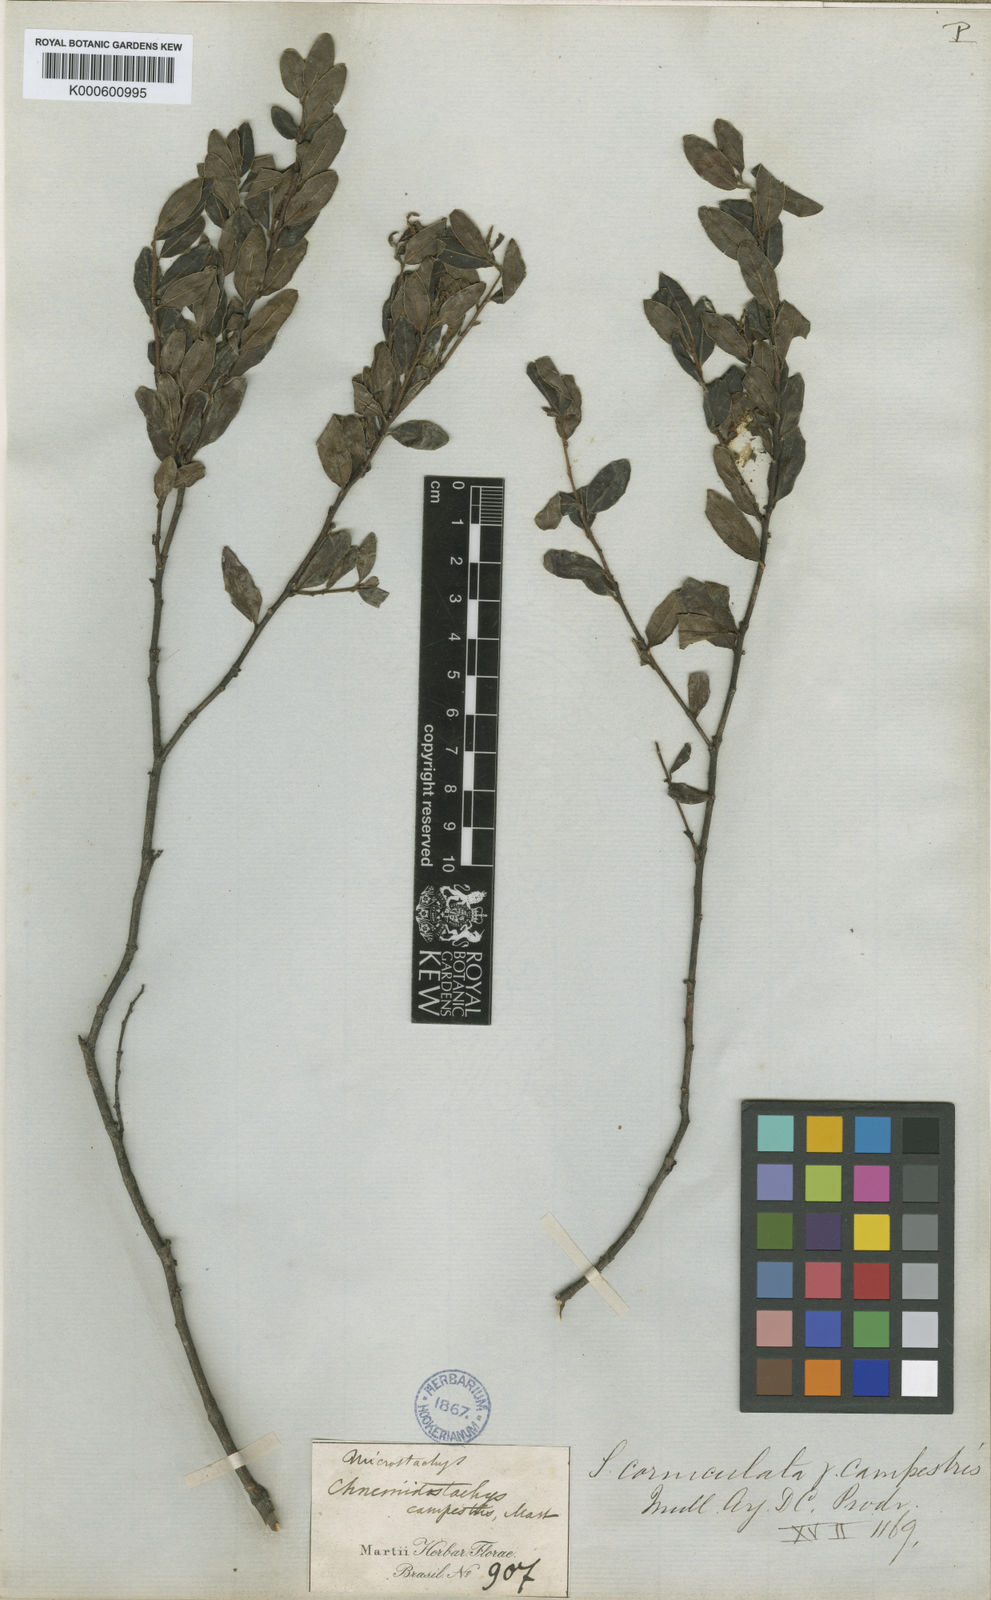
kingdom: Plantae
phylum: Tracheophyta
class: Magnoliopsida
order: Malpighiales
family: Euphorbiaceae
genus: Microstachys
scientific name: Microstachys corniculata
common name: Hato tejas
